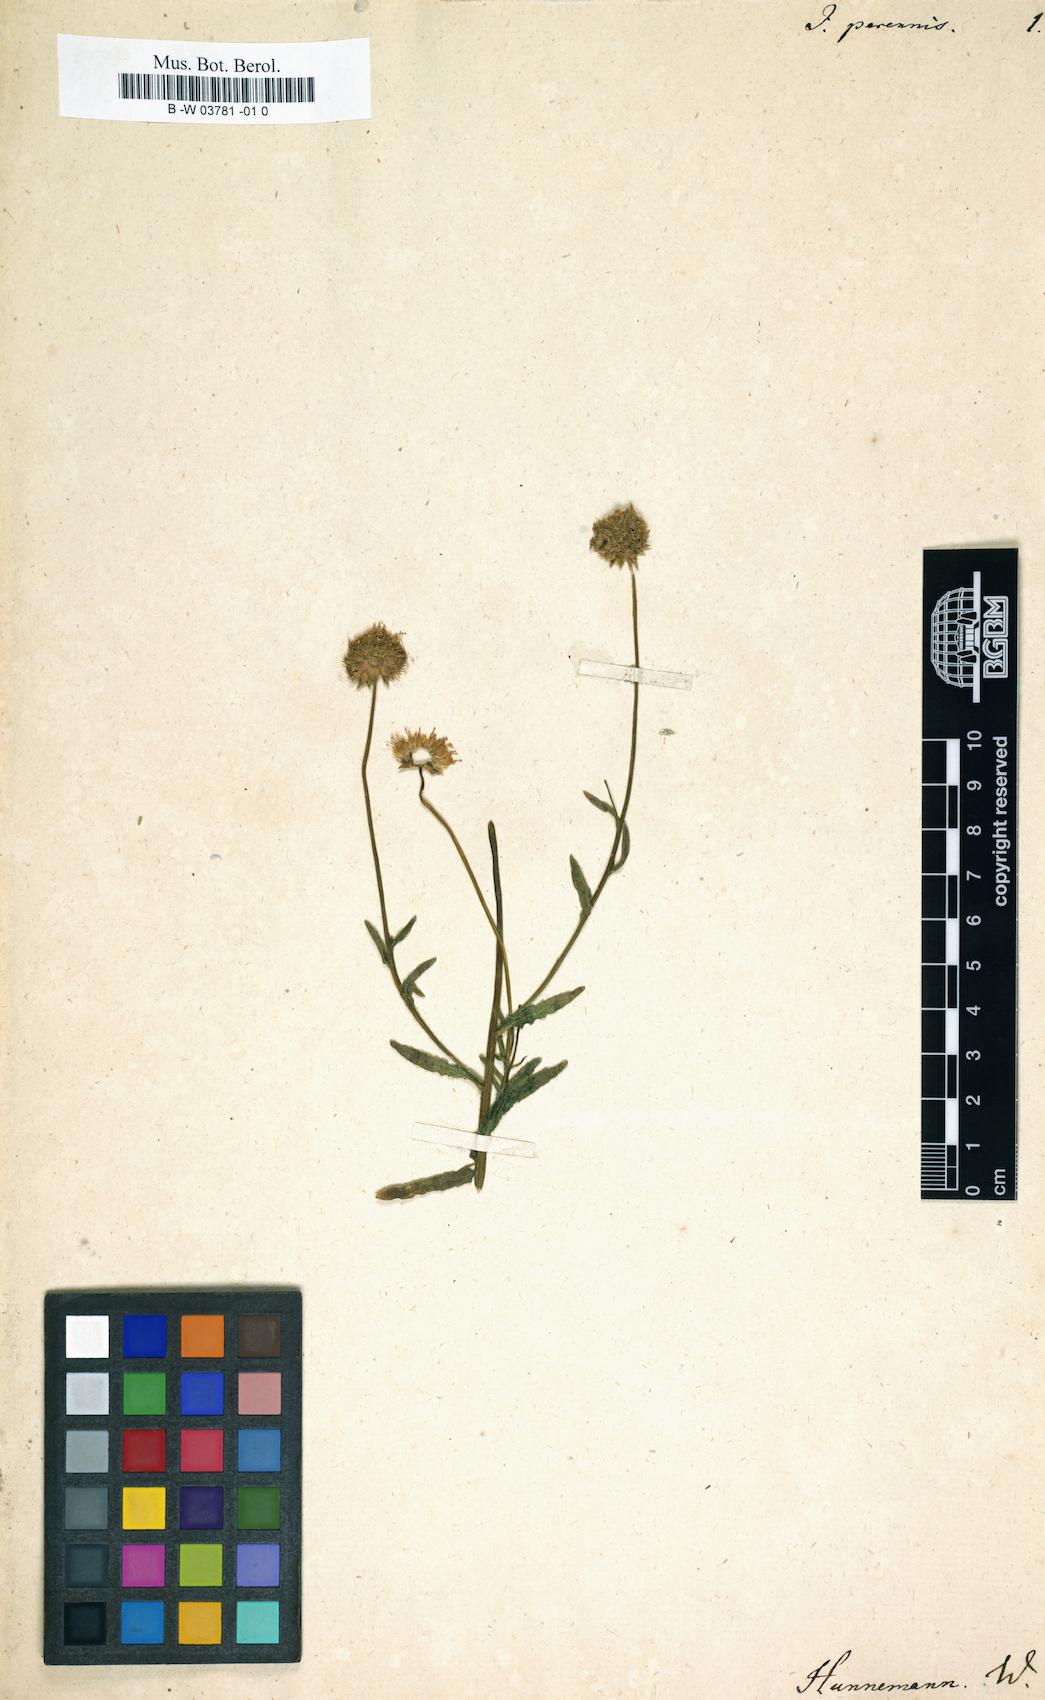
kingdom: Plantae
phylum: Tracheophyta
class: Magnoliopsida
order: Asterales
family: Campanulaceae
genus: Jasione
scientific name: Jasione perennis
